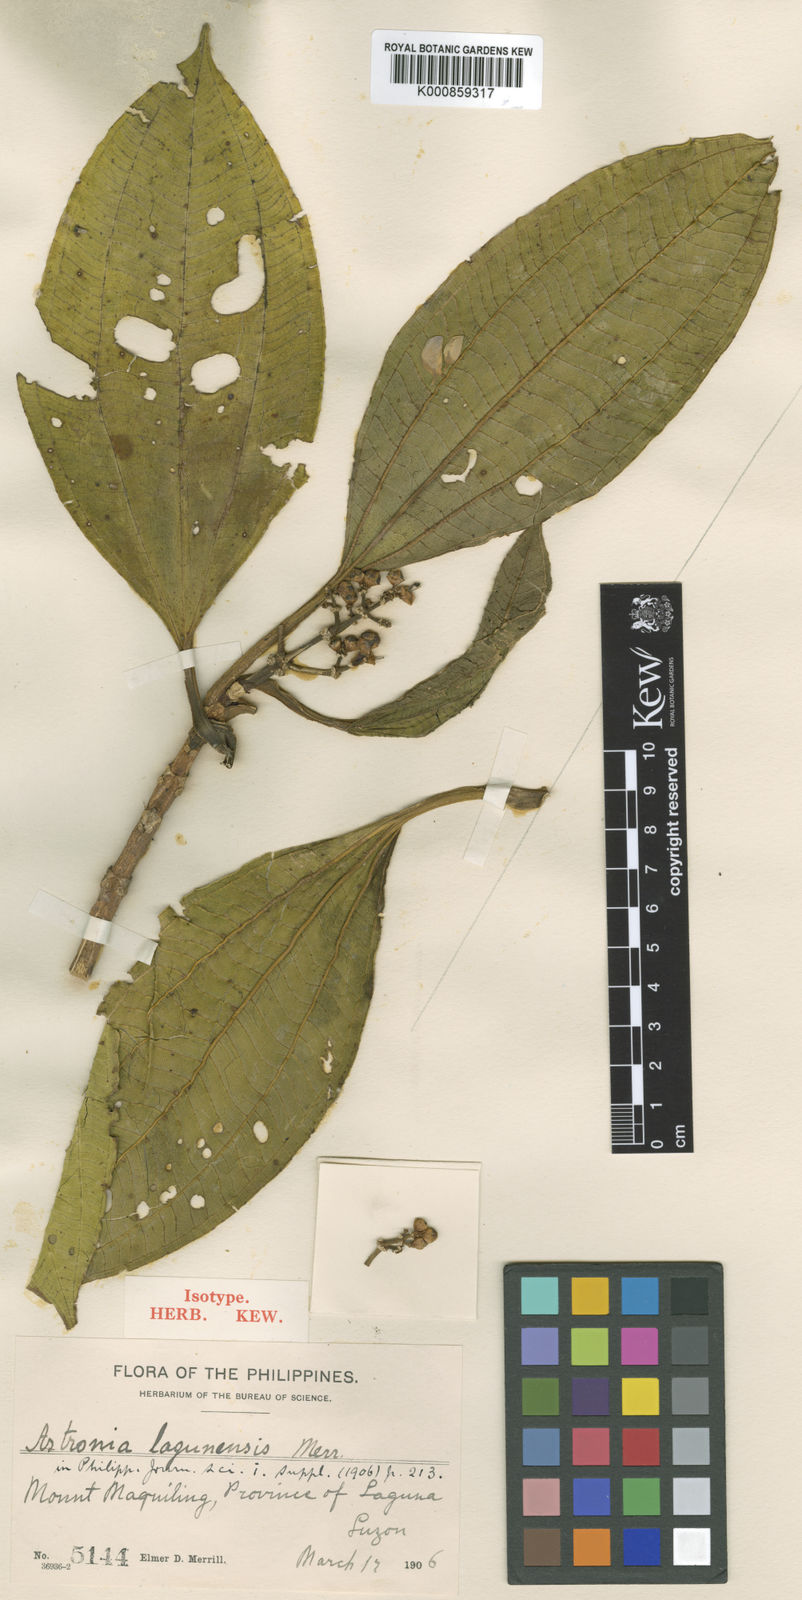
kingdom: Plantae
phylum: Tracheophyta
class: Magnoliopsida
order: Myrtales
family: Melastomataceae
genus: Astronia
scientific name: Astronia lagunensis
